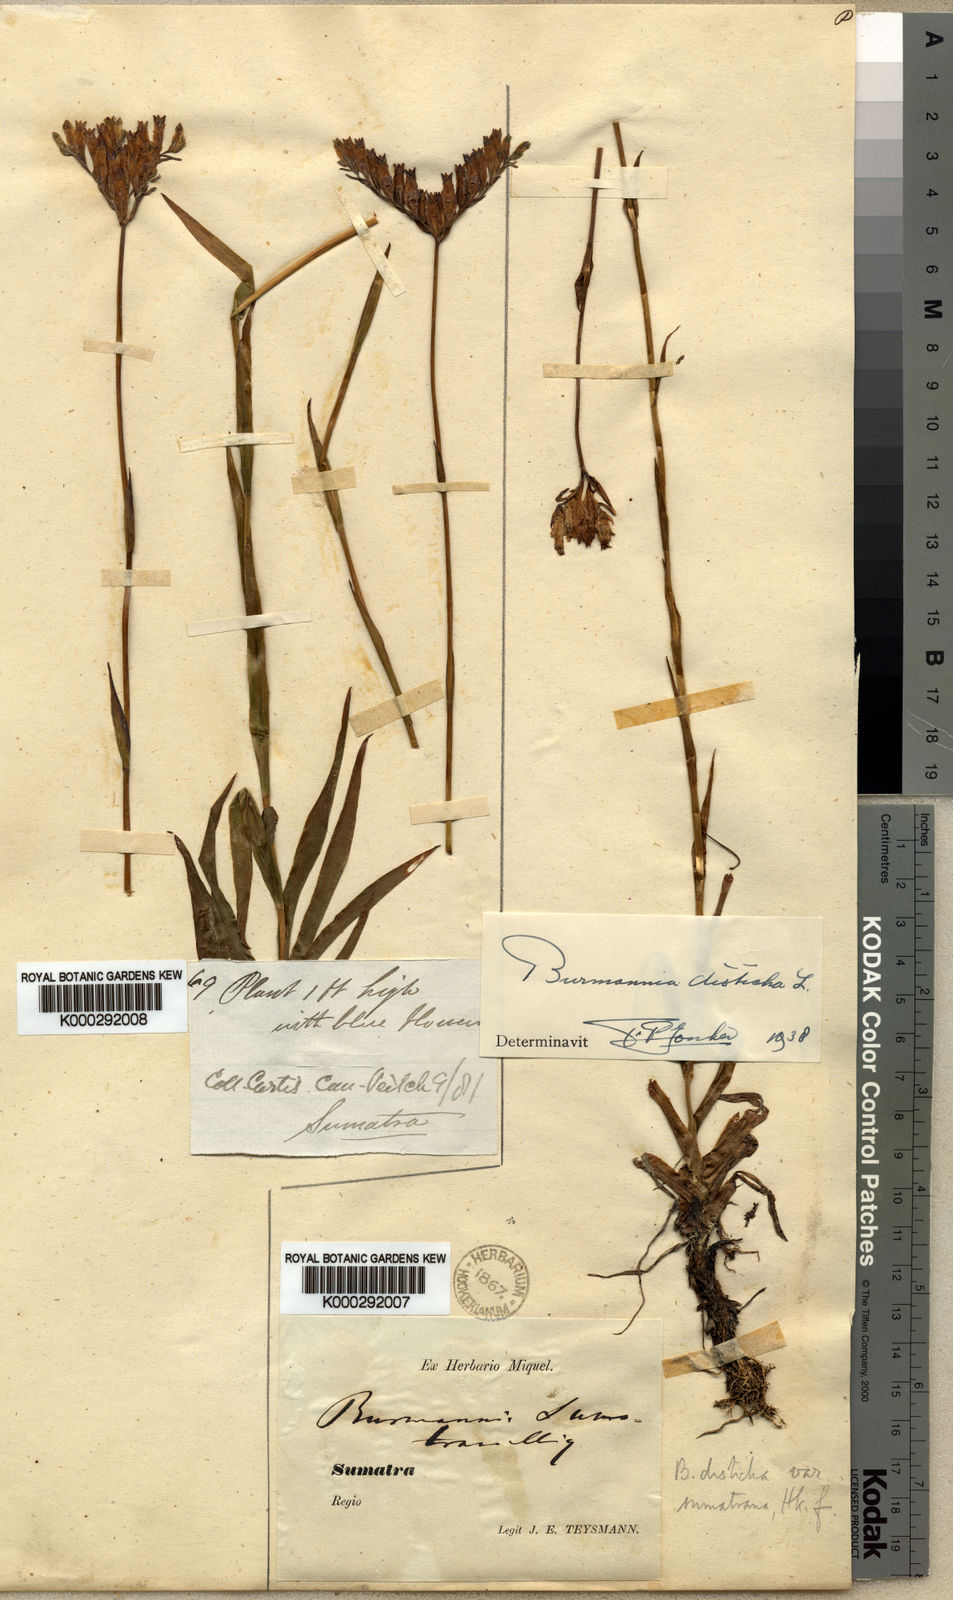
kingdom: Plantae
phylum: Tracheophyta
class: Liliopsida
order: Dioscoreales
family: Burmanniaceae
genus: Burmannia
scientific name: Burmannia disticha
